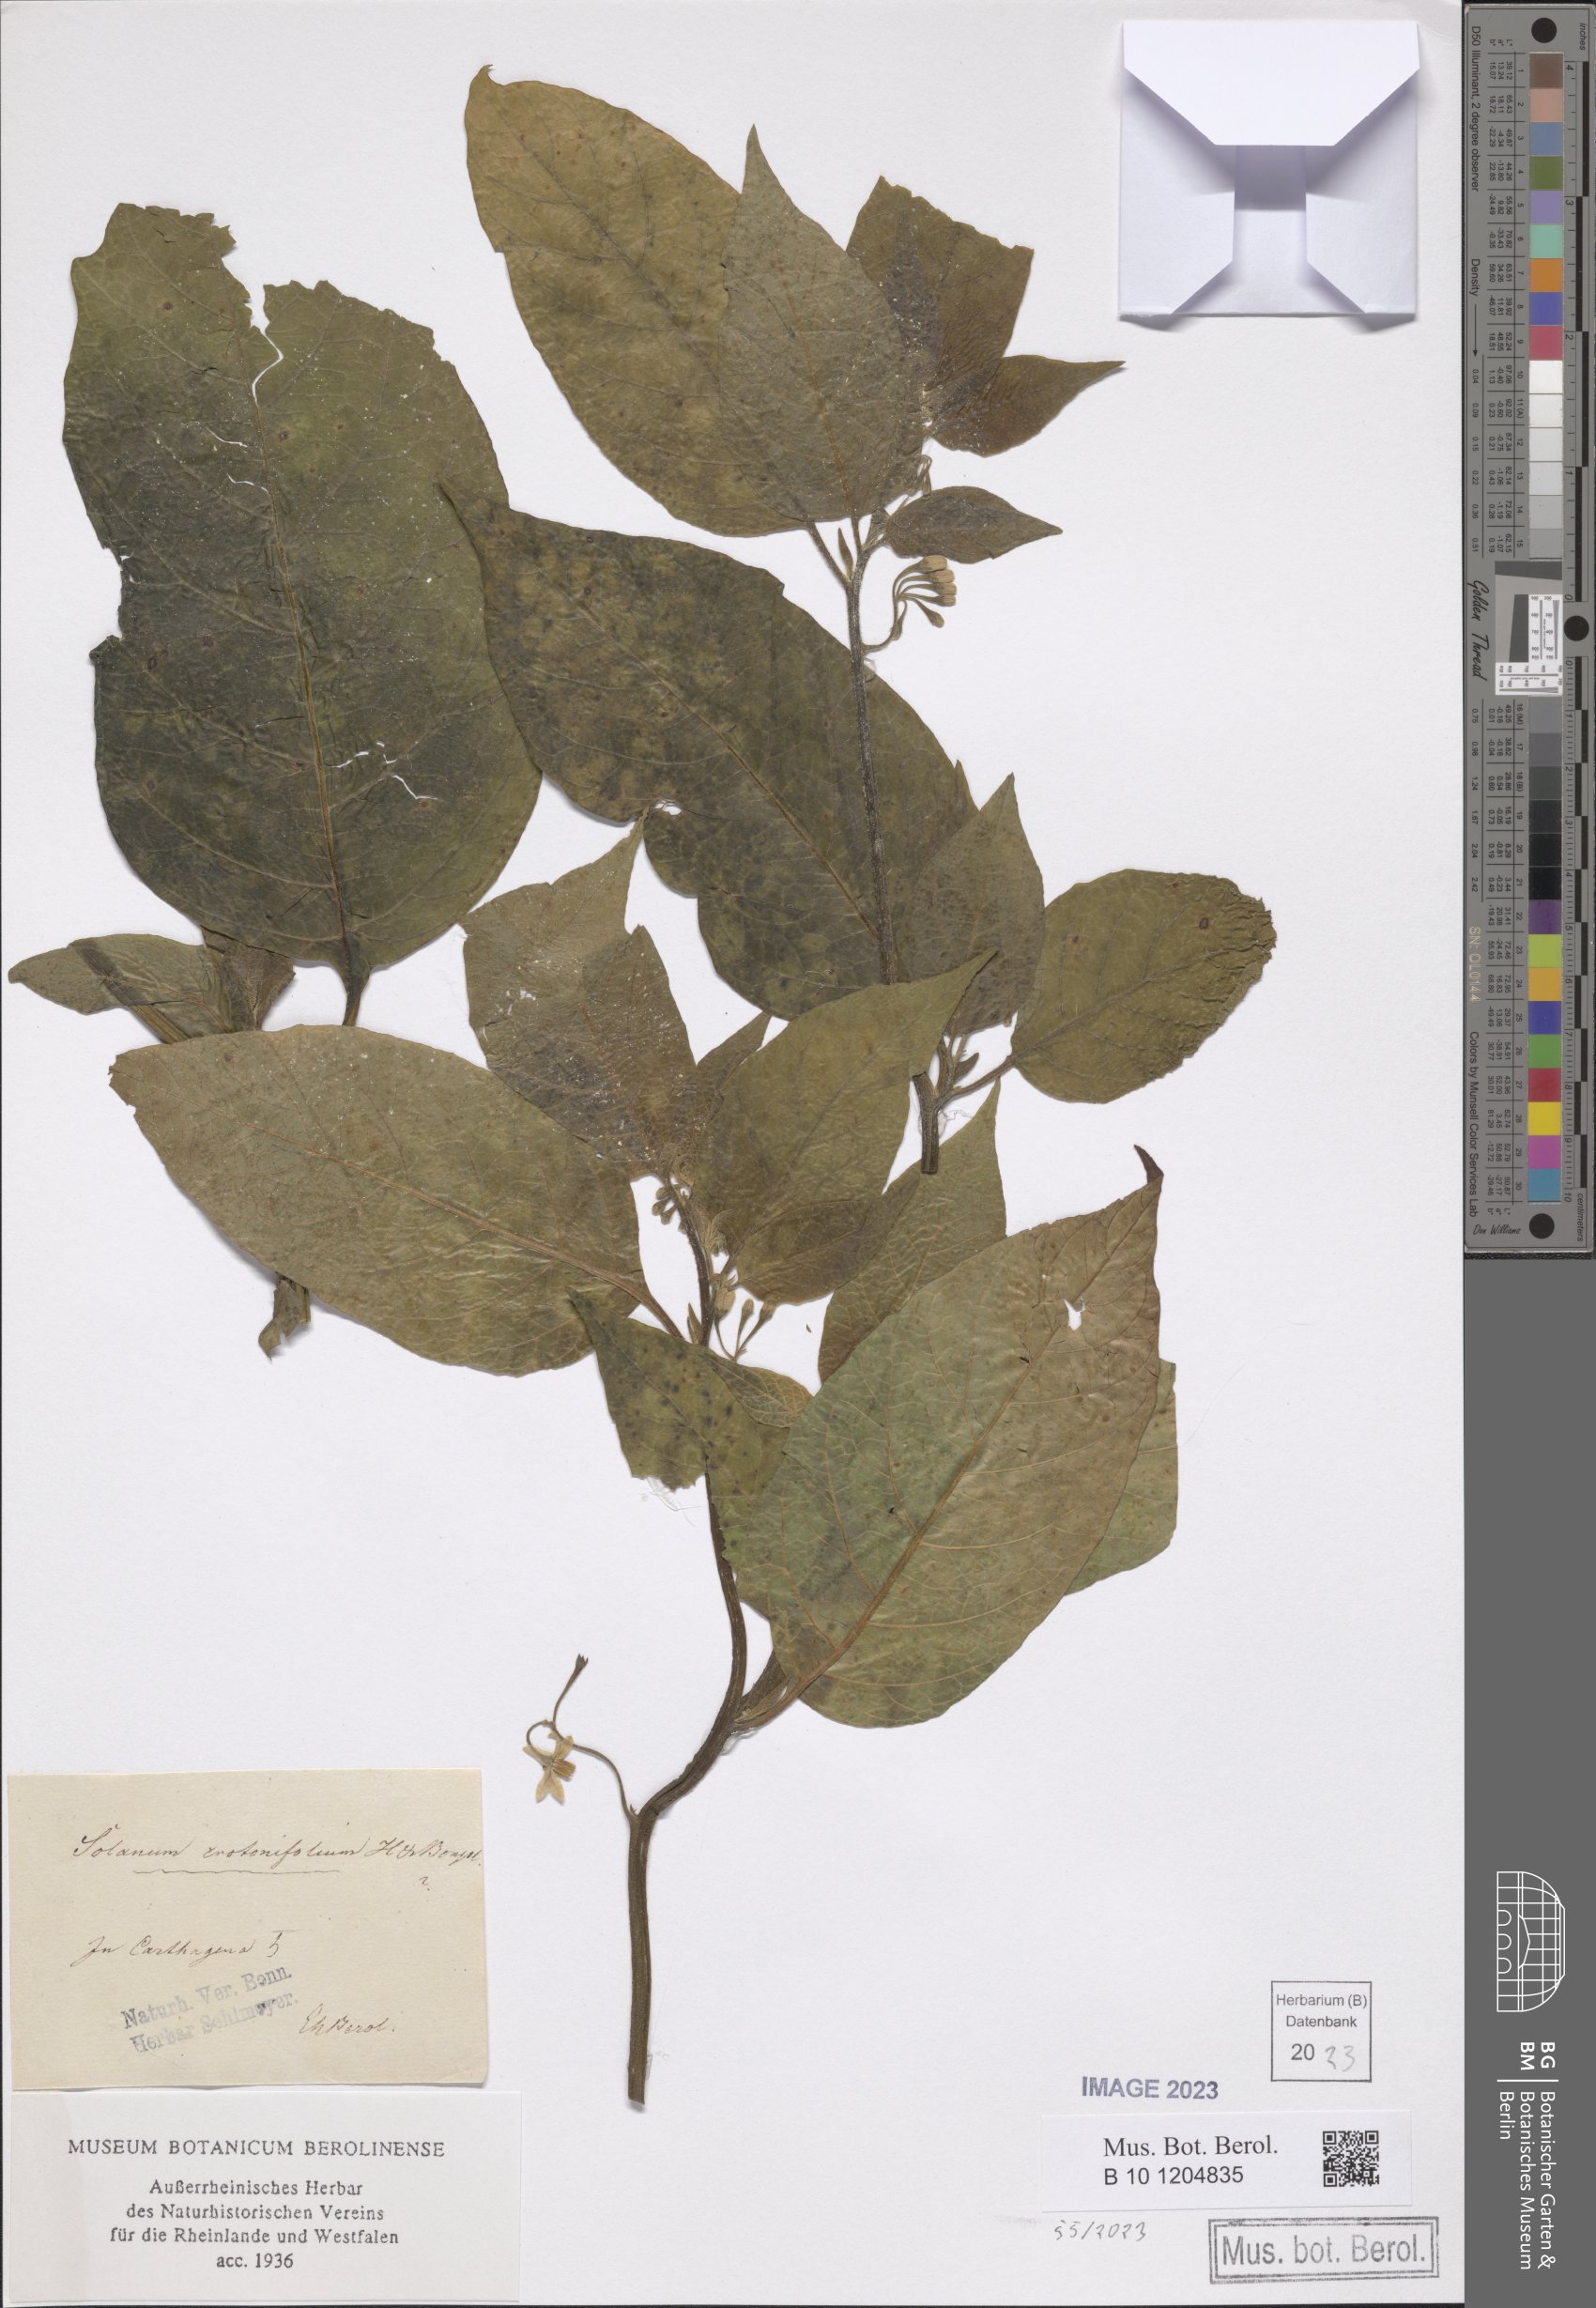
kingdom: Plantae
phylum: Tracheophyta
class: Magnoliopsida
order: Solanales
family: Solanaceae
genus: Solanum
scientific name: Solanum crotonifolium
